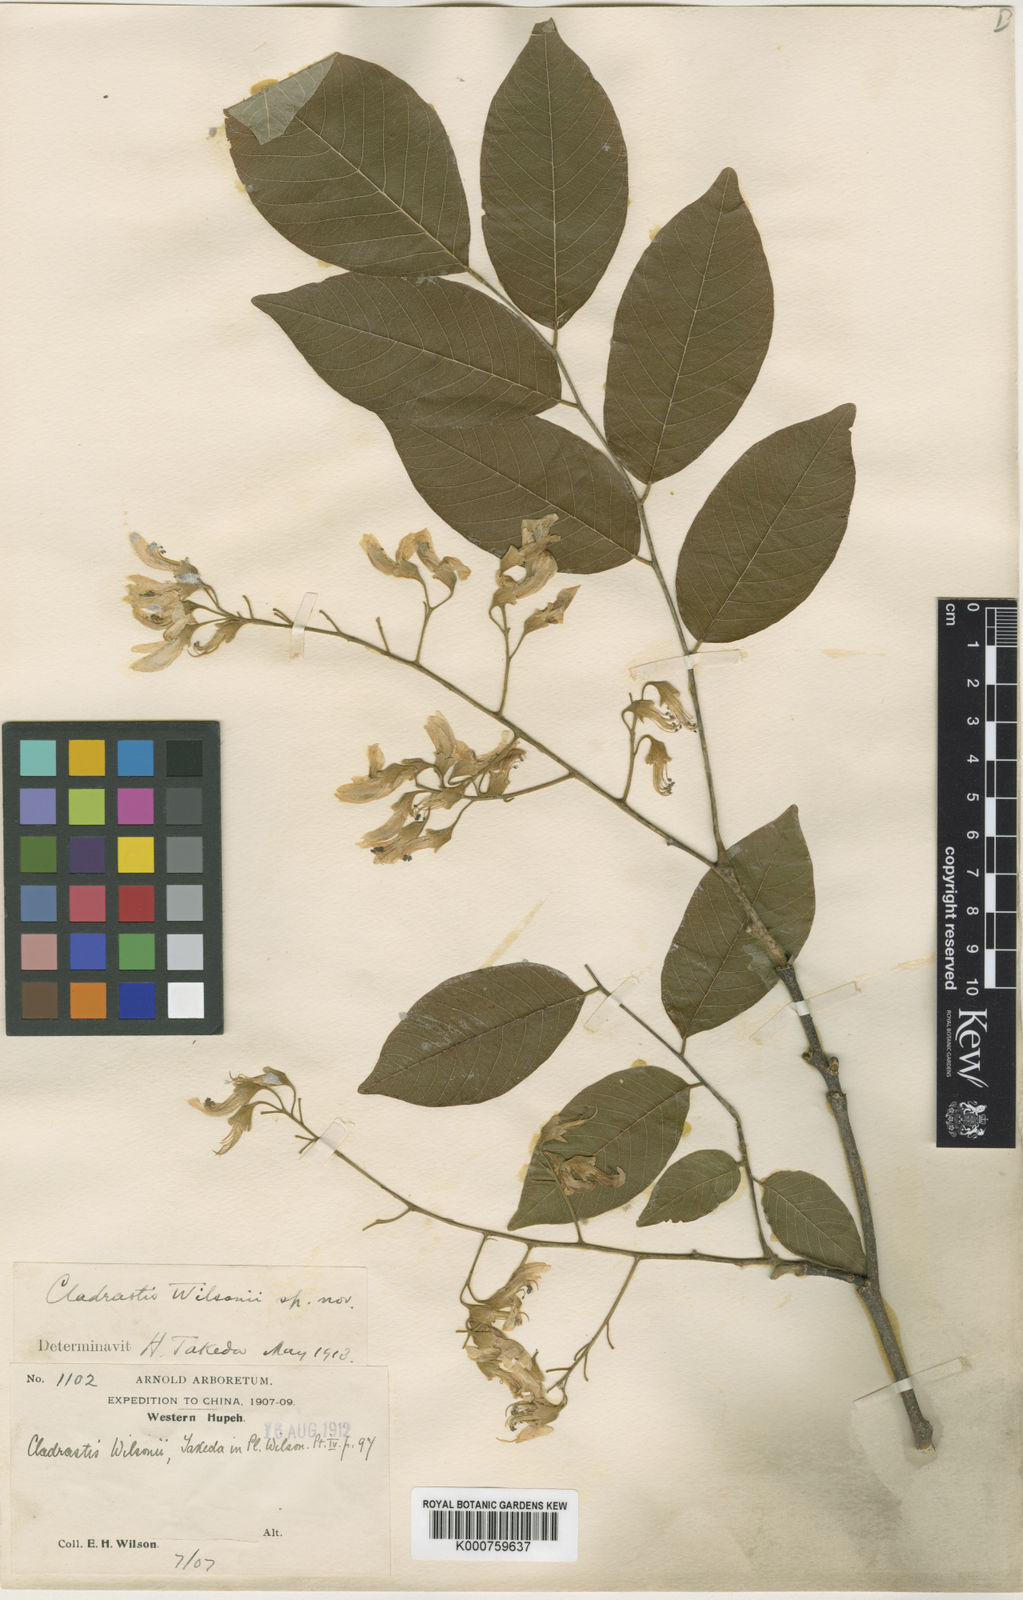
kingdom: Plantae
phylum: Tracheophyta
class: Magnoliopsida
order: Fabales
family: Fabaceae
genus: Cladrastis
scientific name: Cladrastis wilsonii
